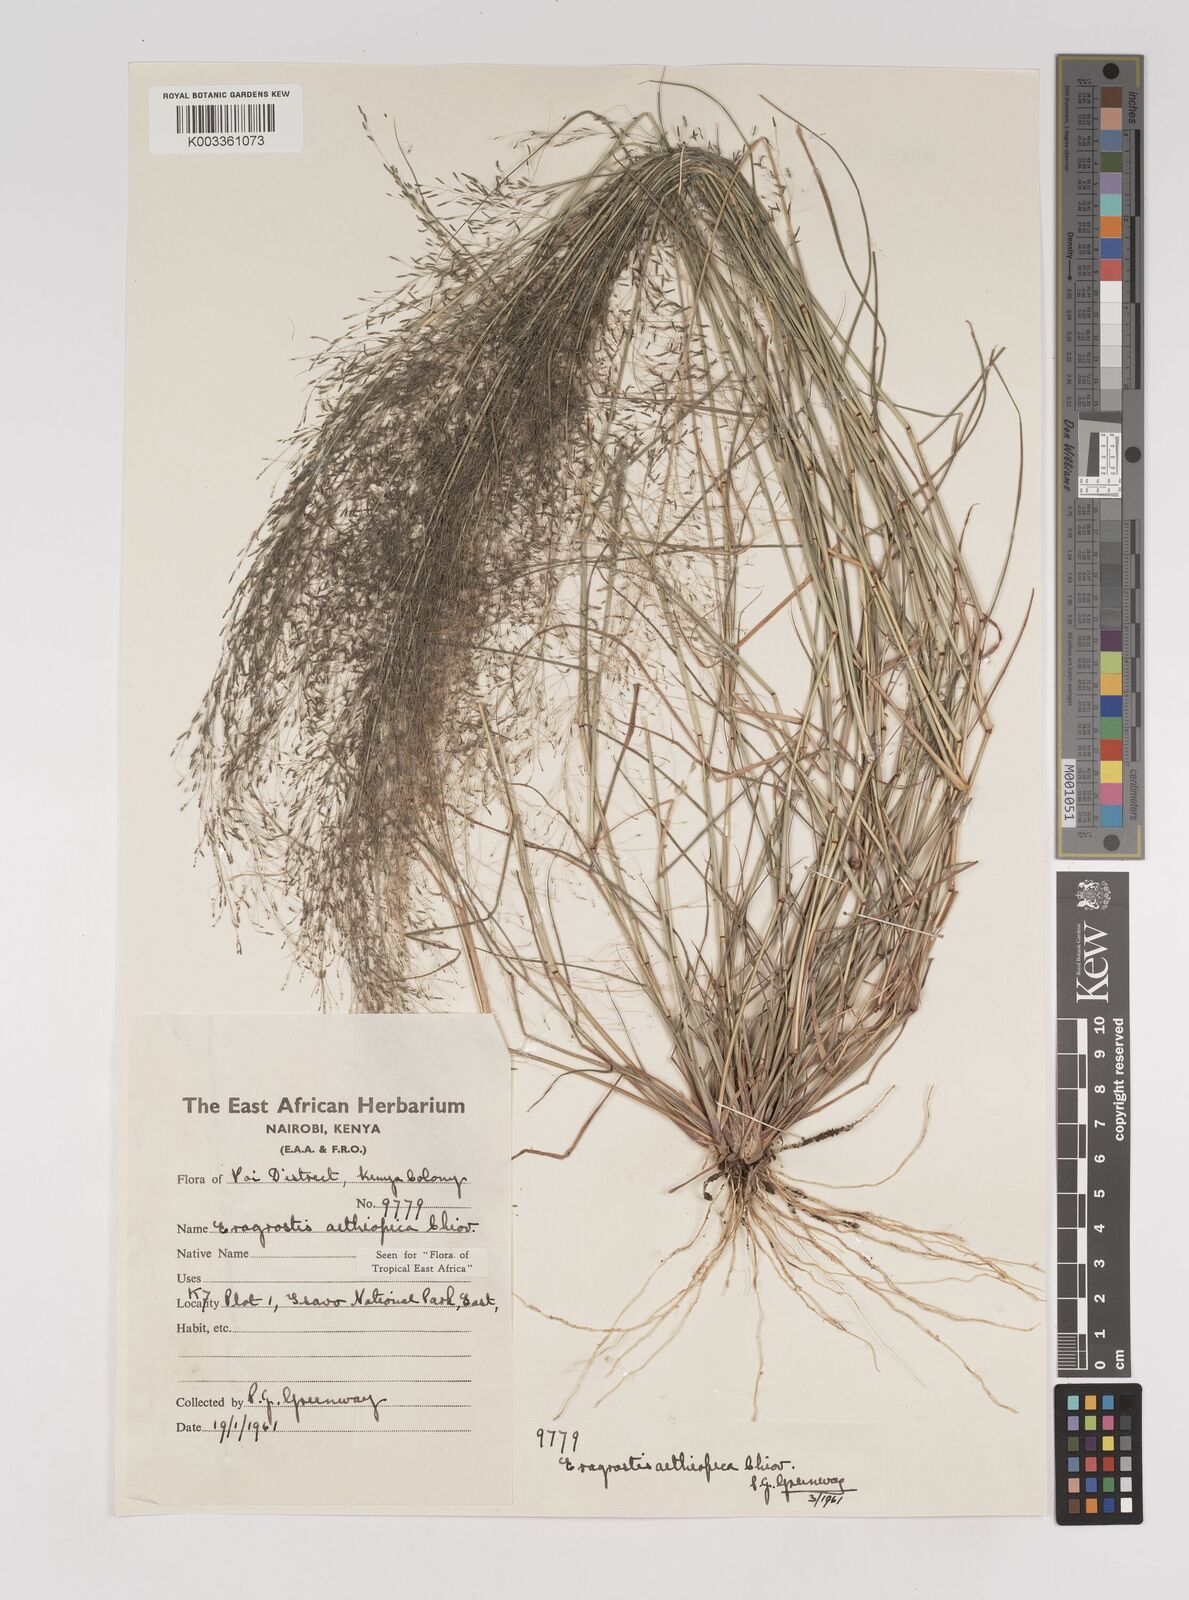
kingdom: Plantae
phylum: Tracheophyta
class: Liliopsida
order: Poales
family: Poaceae
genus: Eragrostis
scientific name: Eragrostis aethiopica
